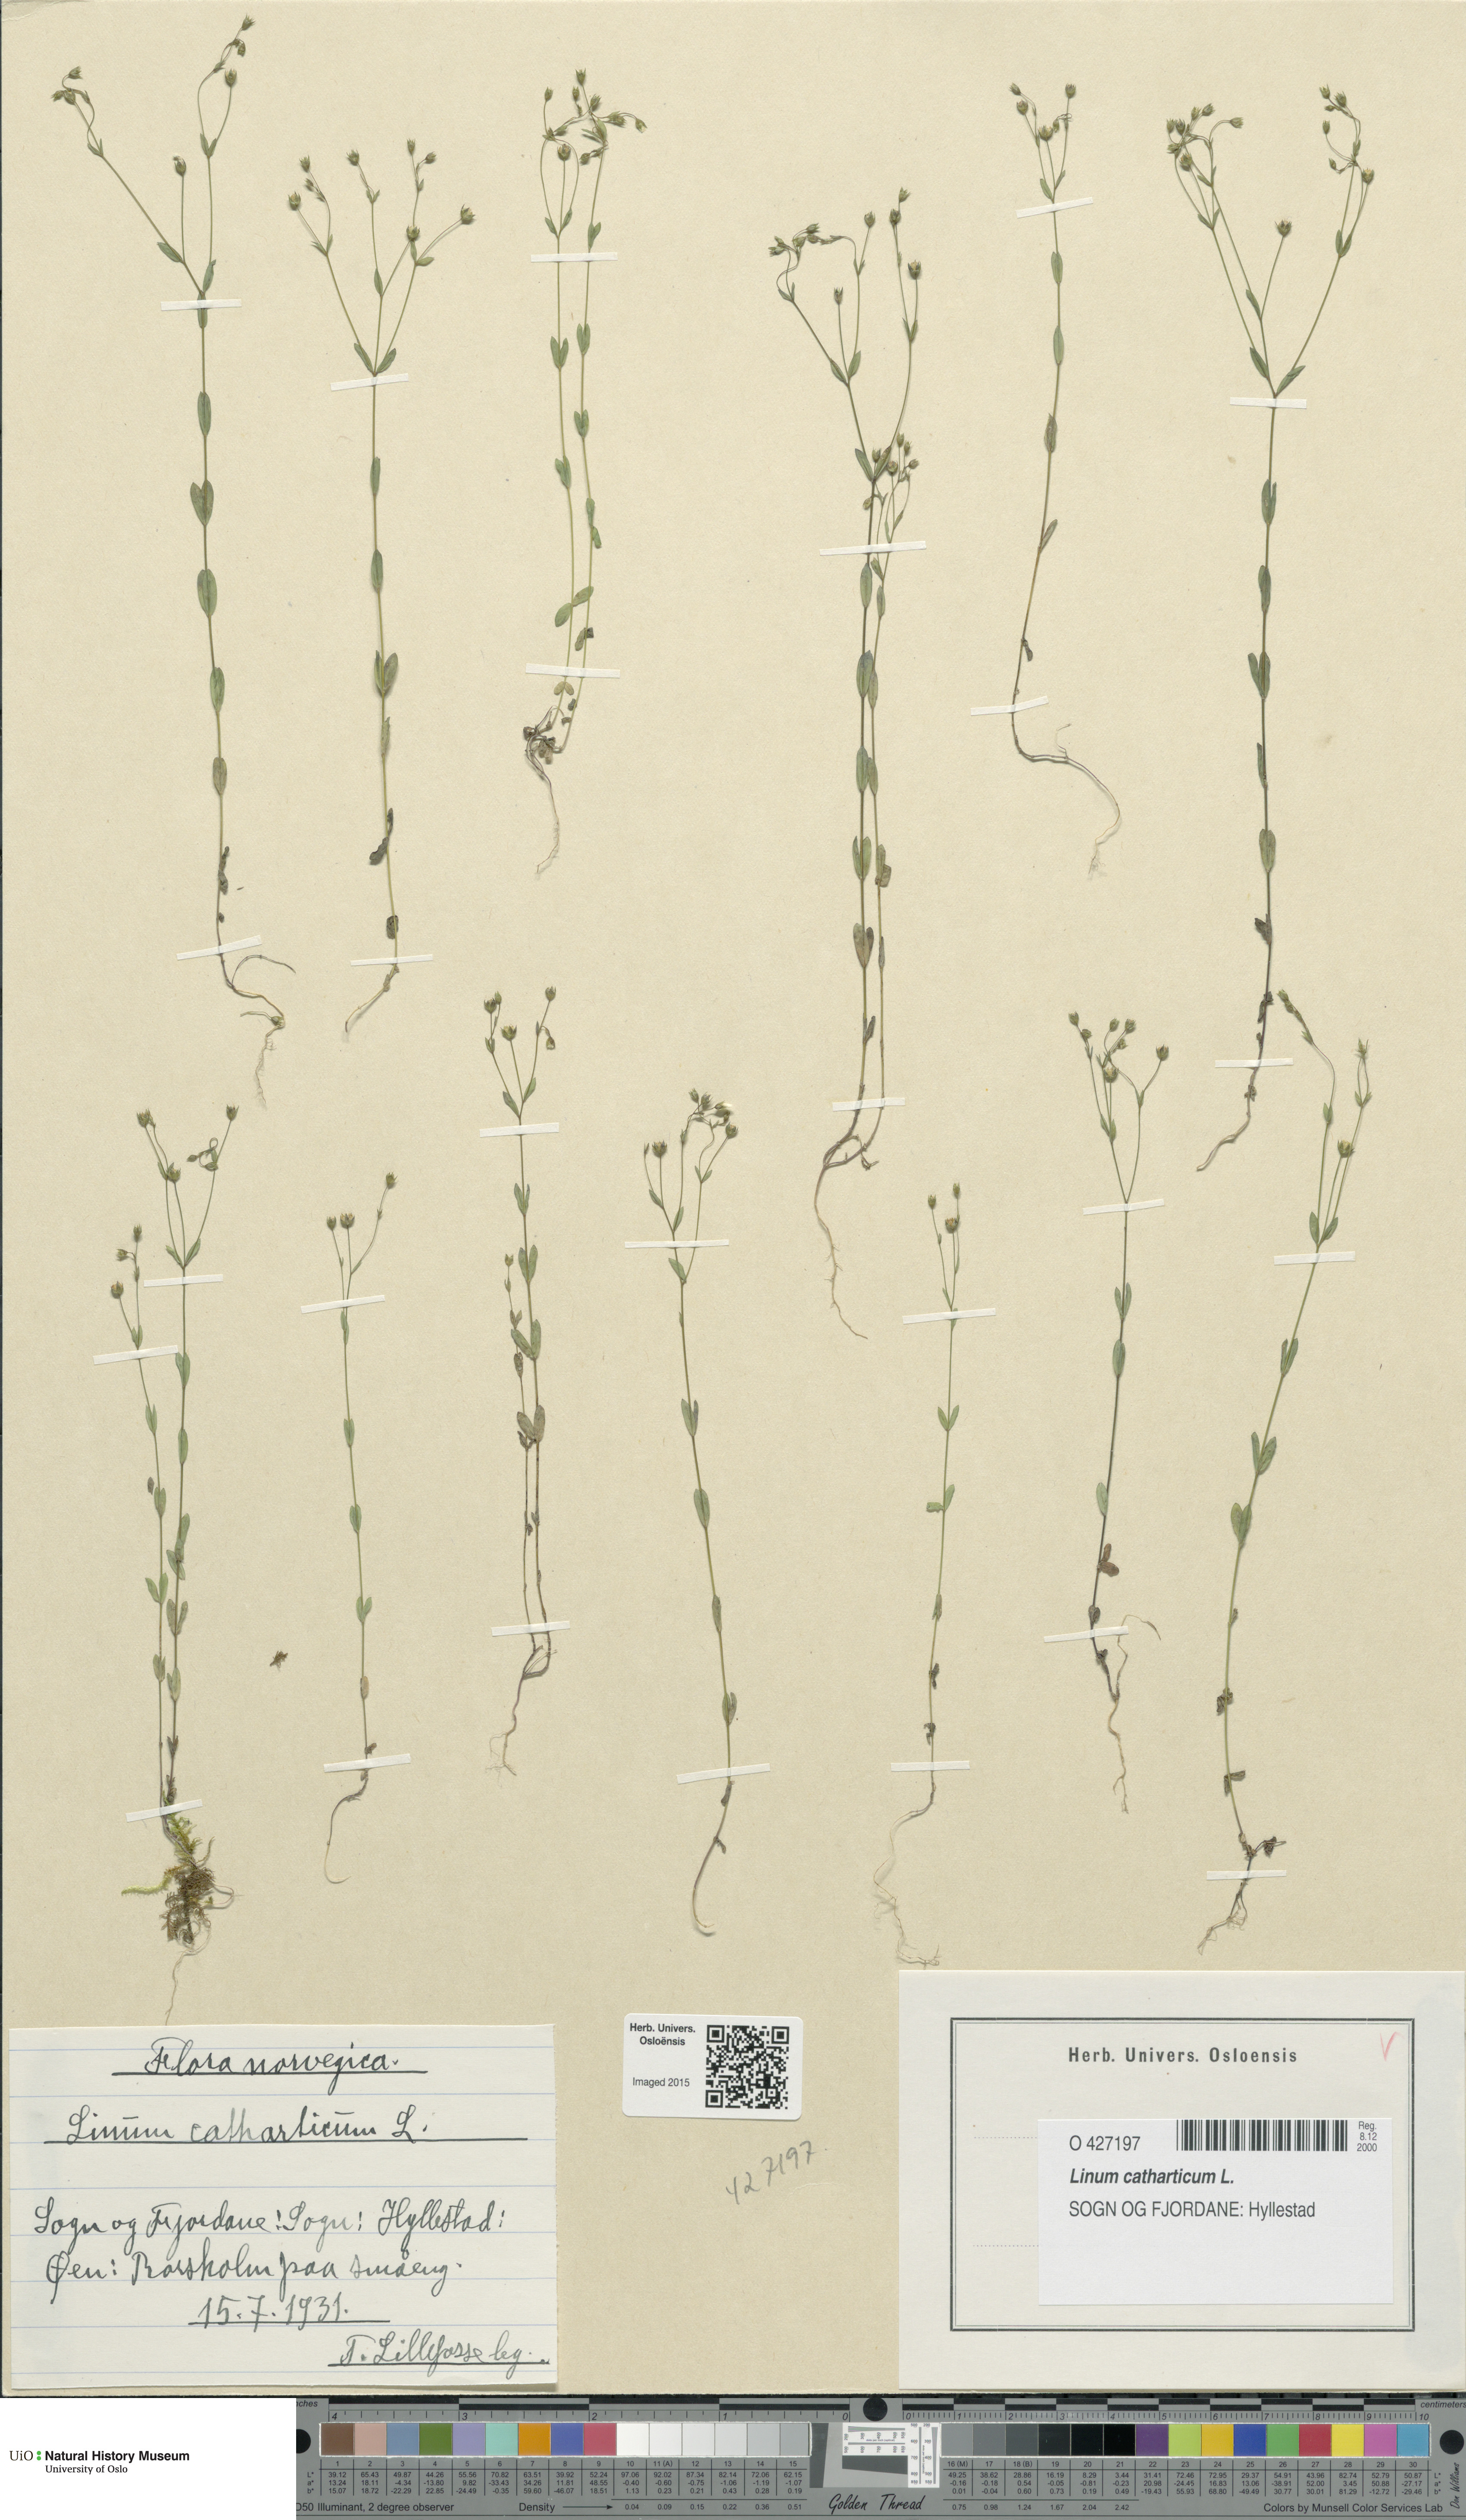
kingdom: Plantae
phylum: Tracheophyta
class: Magnoliopsida
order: Malpighiales
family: Linaceae
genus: Linum
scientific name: Linum catharticum
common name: Fairy flax
